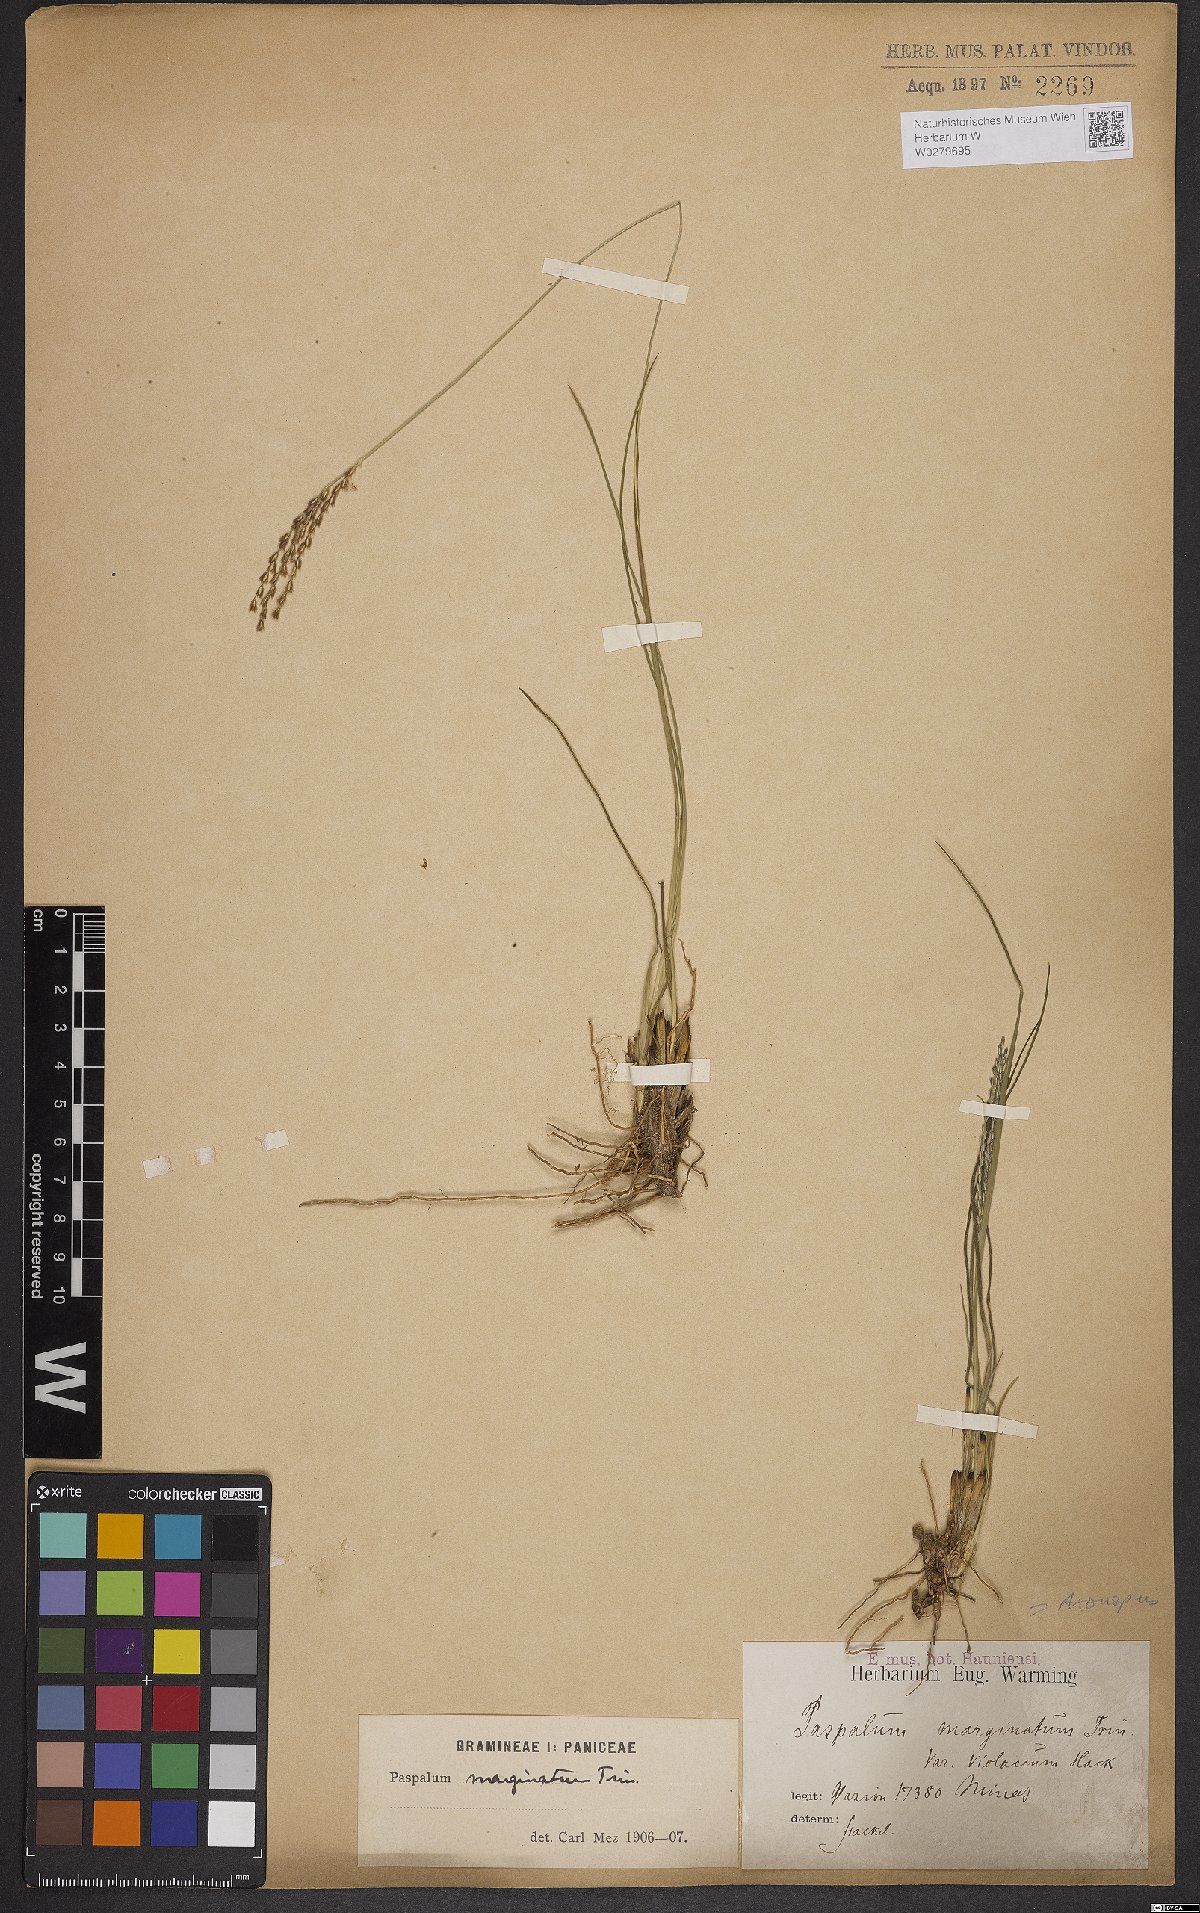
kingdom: Plantae
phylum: Tracheophyta
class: Liliopsida
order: Poales
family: Poaceae
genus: Axonopus
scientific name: Axonopus marginatus
